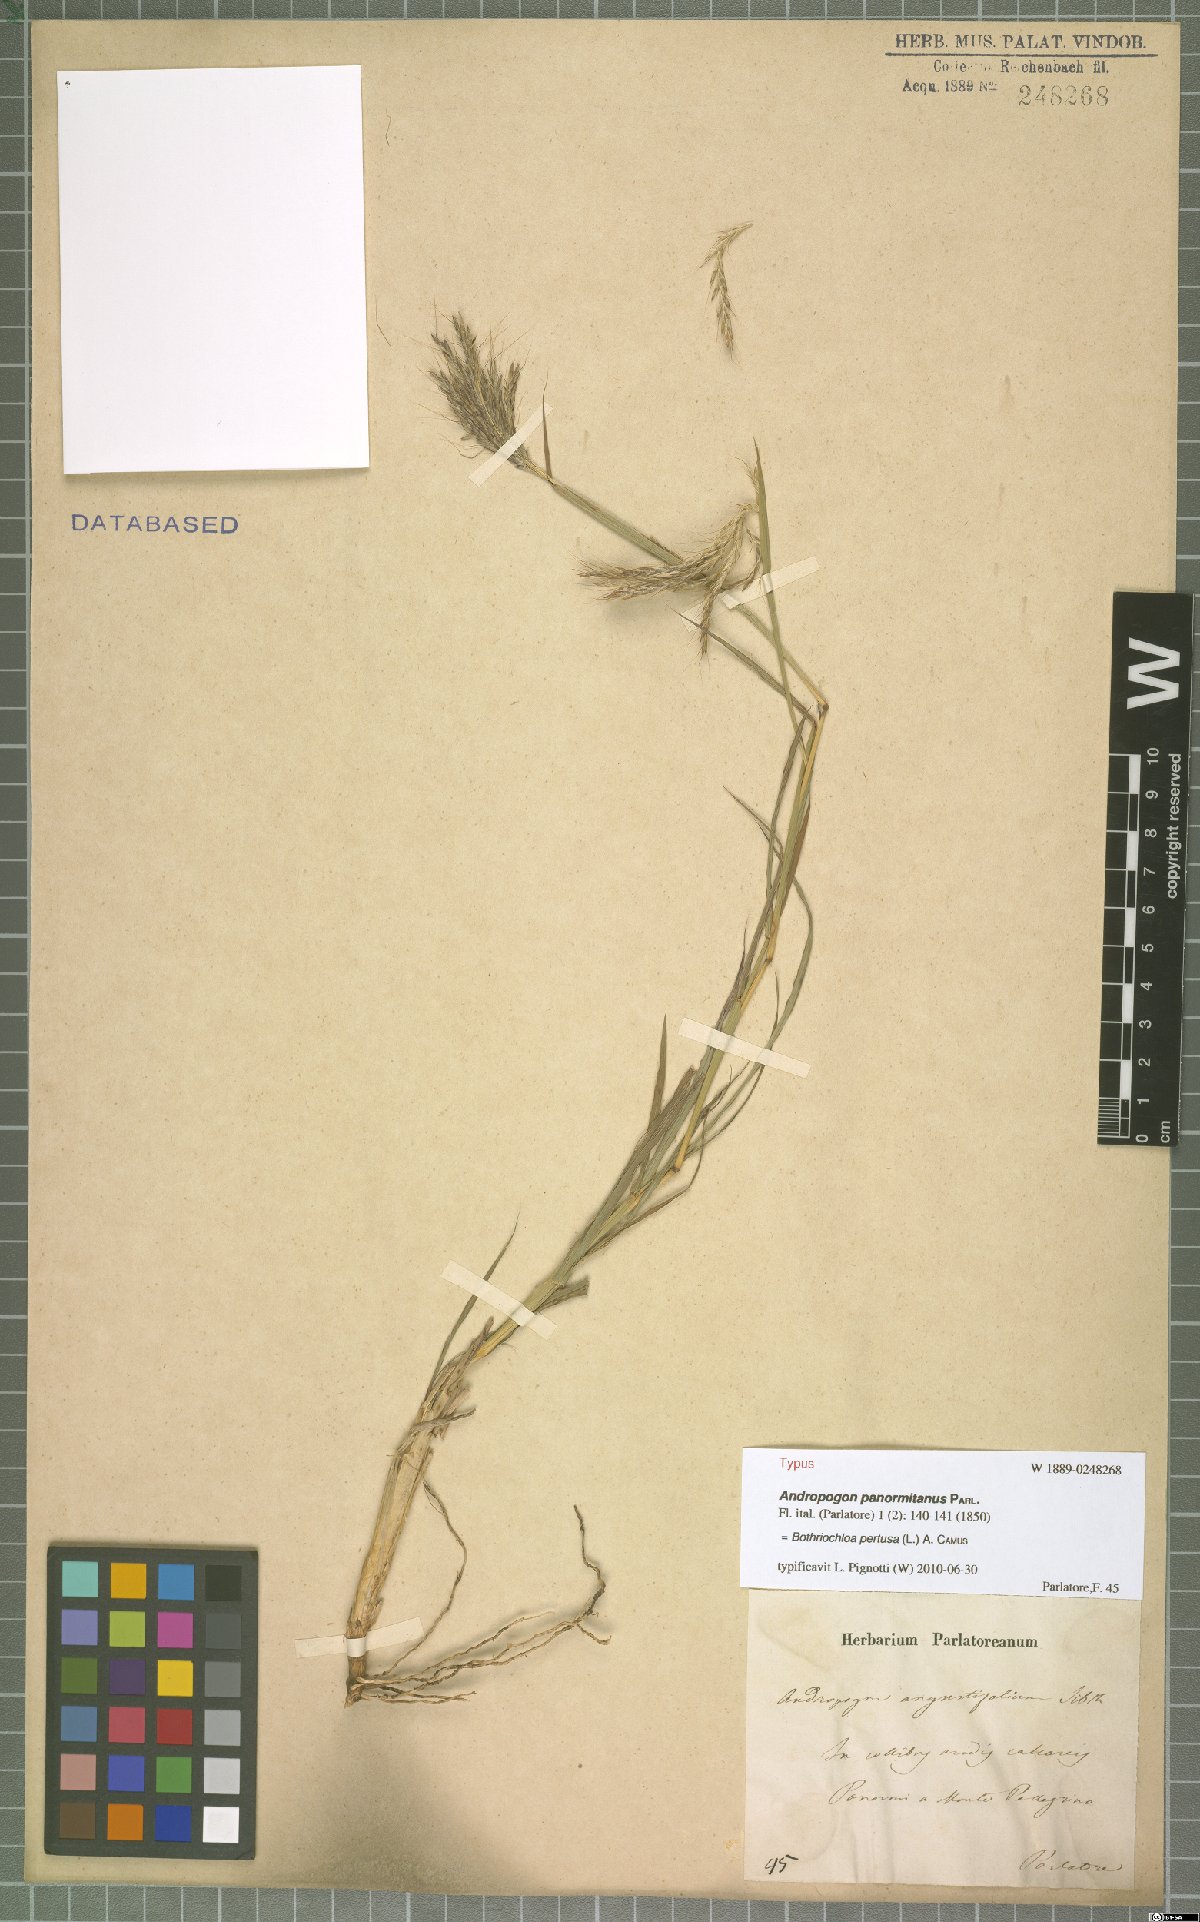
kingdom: Plantae
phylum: Tracheophyta
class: Liliopsida
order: Poales
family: Poaceae
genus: Bothriochloa
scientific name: Bothriochloa pertusa
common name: Pitted beardgrass
